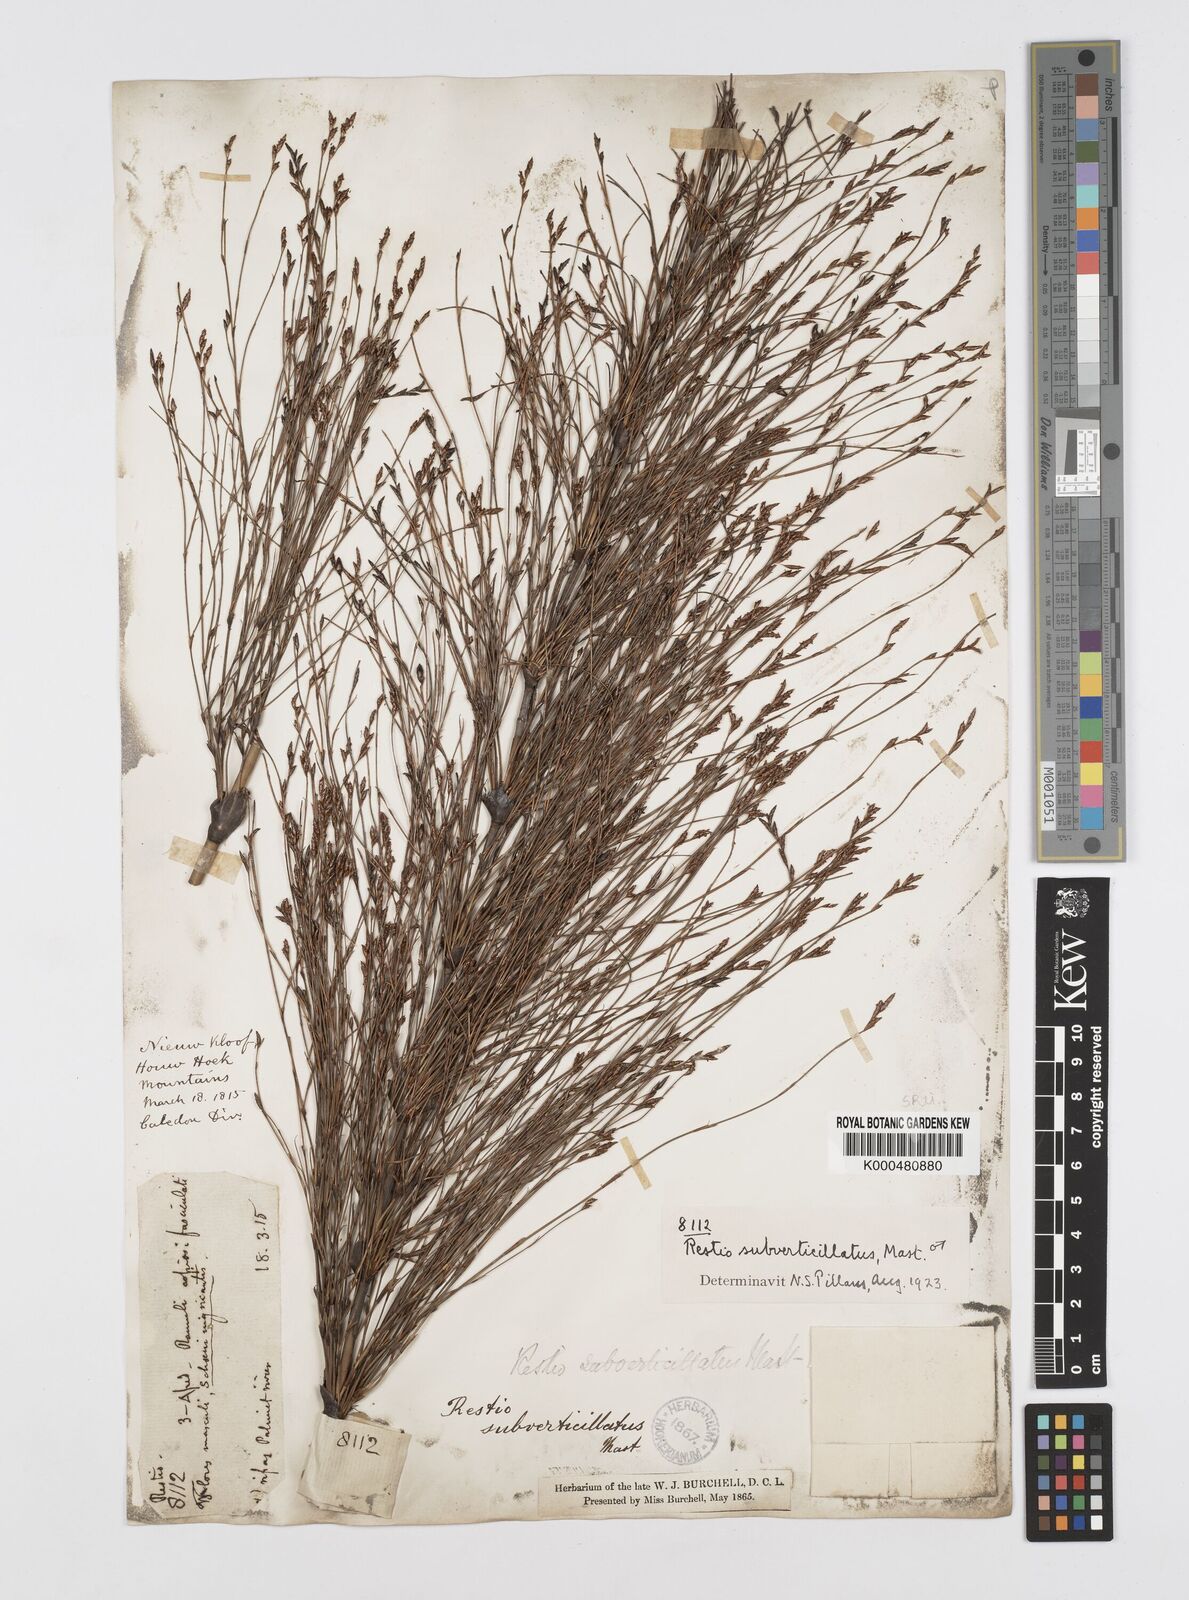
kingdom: Plantae
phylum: Tracheophyta
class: Liliopsida
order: Poales
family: Restionaceae
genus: Restio
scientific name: Restio subverticillatus
